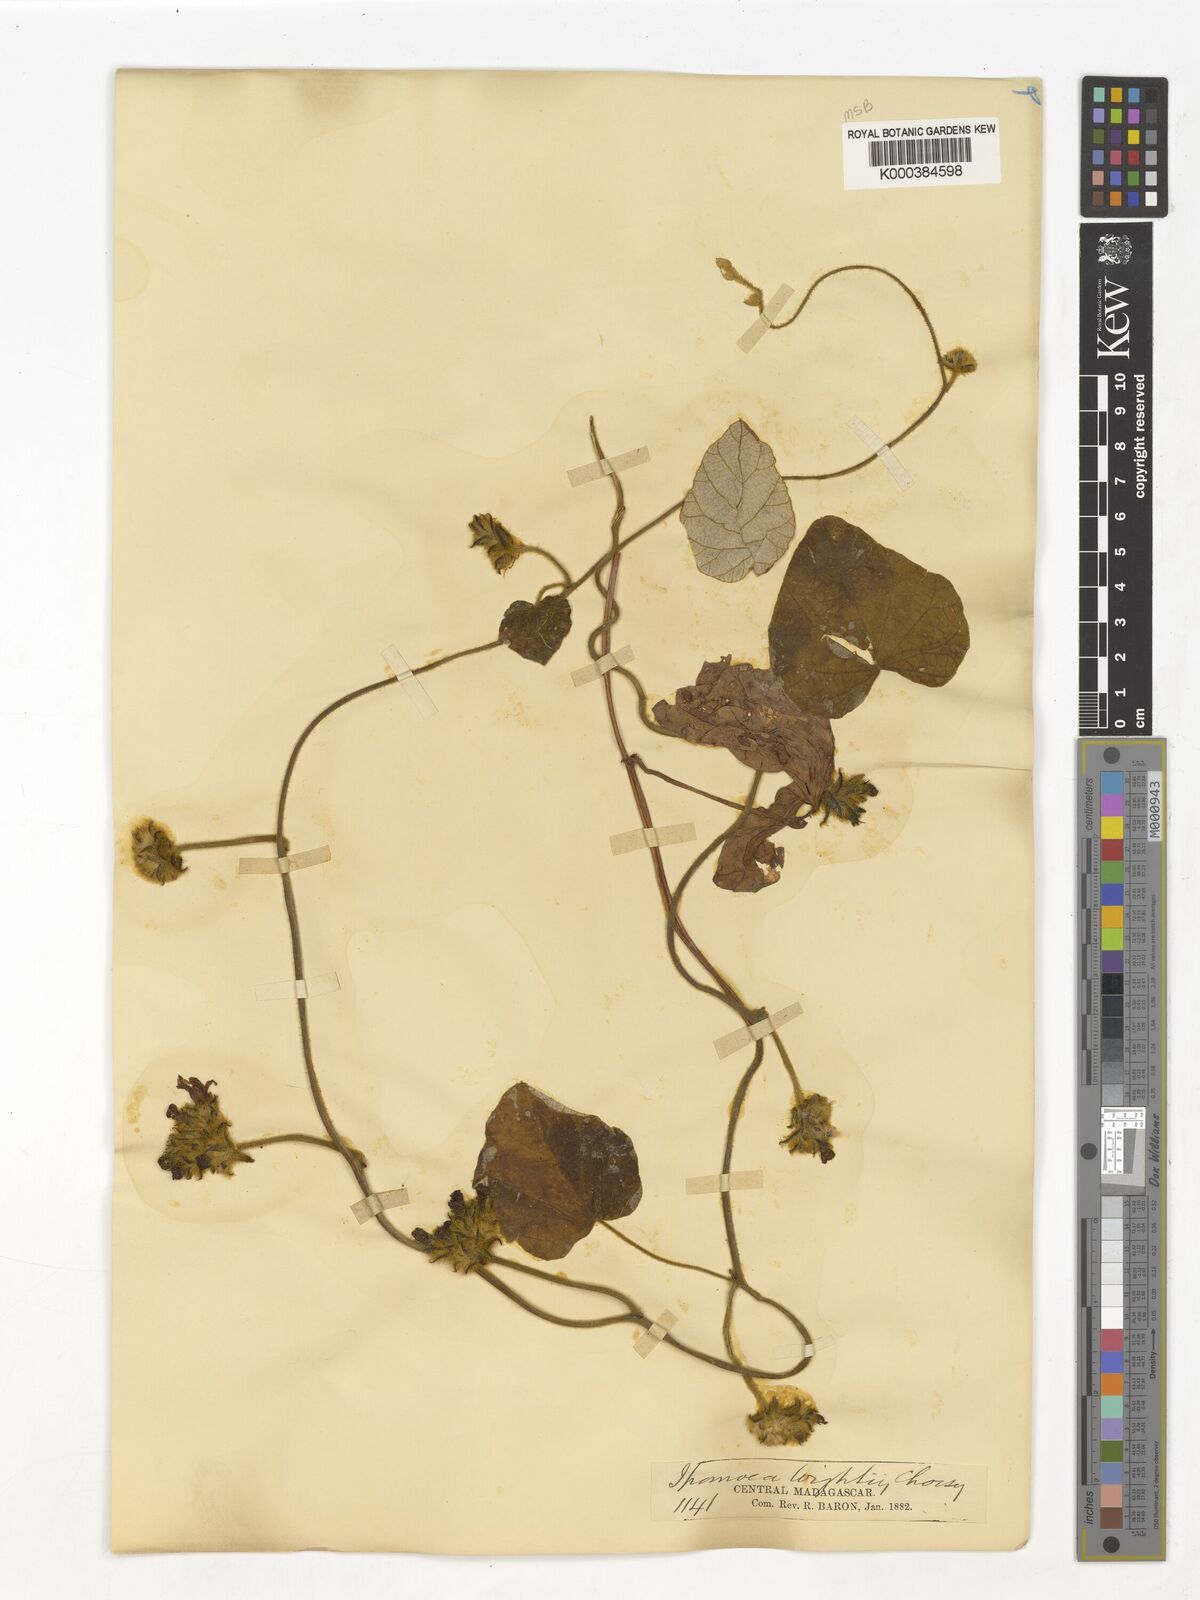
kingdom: Plantae
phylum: Tracheophyta
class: Magnoliopsida
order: Solanales
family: Convolvulaceae
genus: Ipomoea
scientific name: Ipomoea wightii
